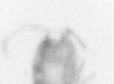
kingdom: Animalia
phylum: Arthropoda
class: Copepoda
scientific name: Copepoda
